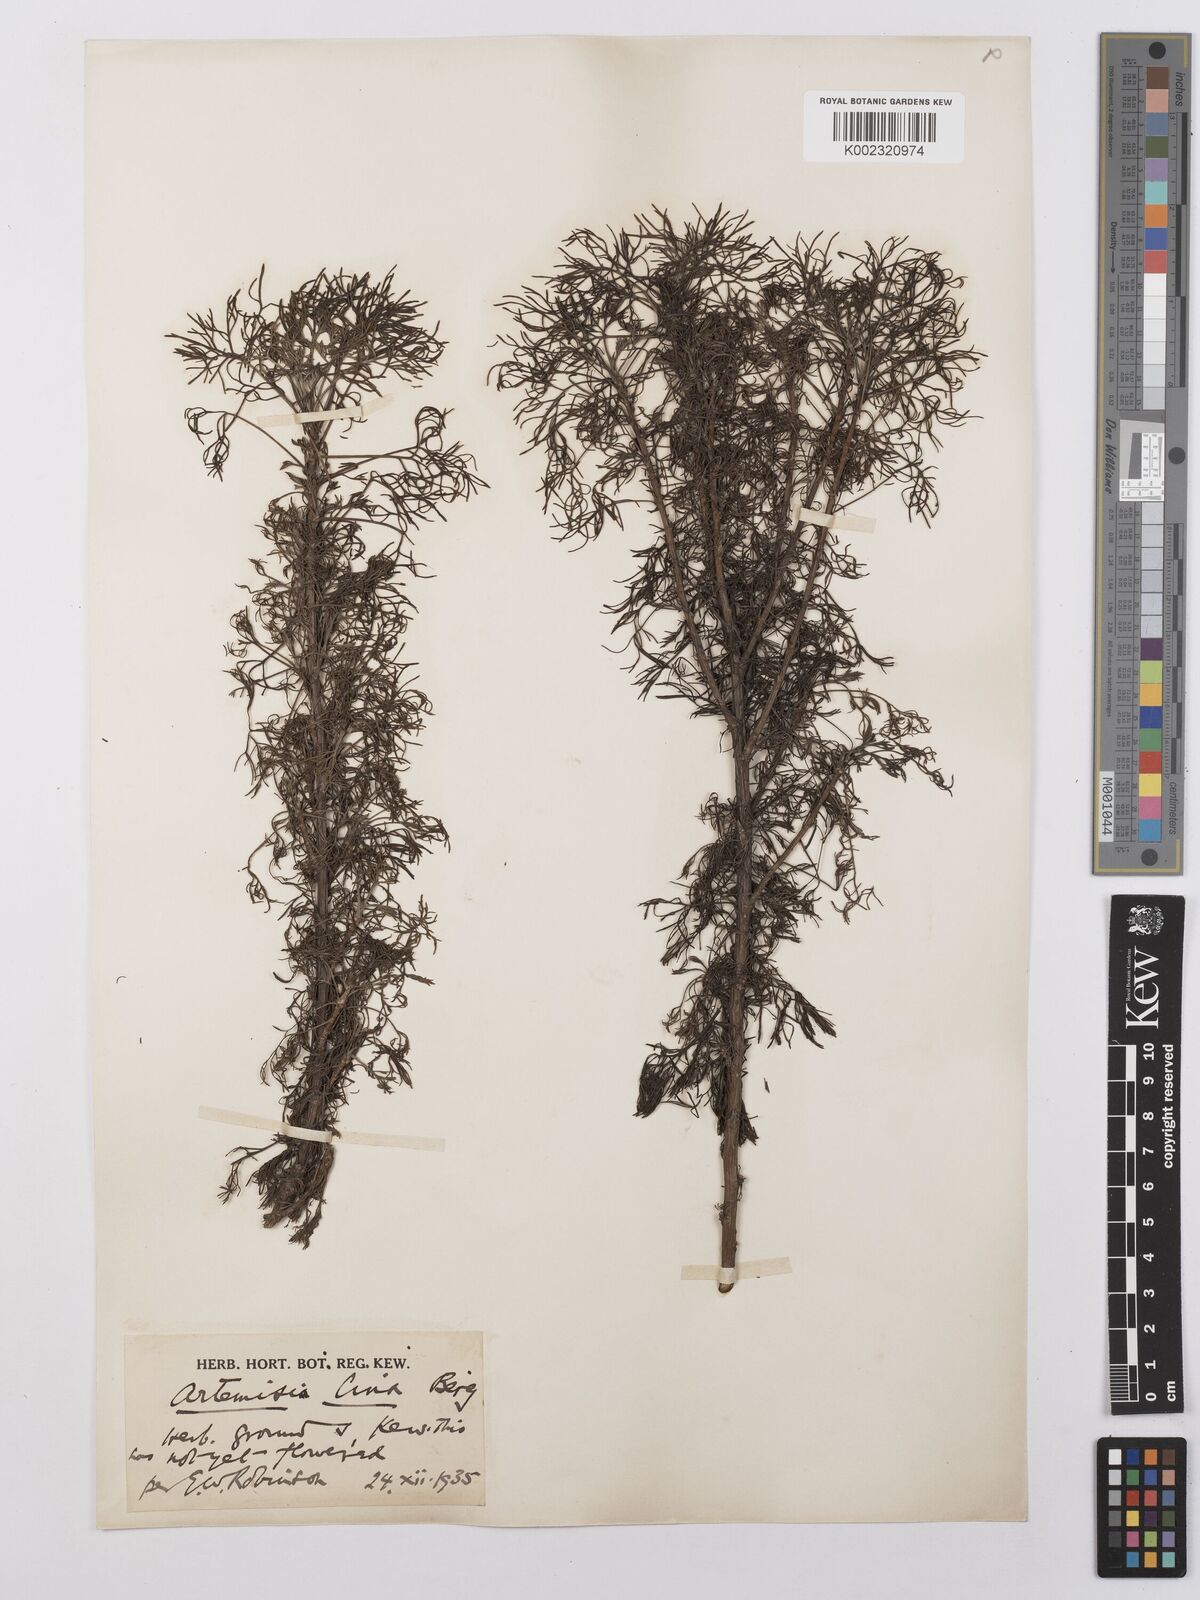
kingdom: Plantae
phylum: Tracheophyta
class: Magnoliopsida
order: Asterales
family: Asteraceae
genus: Artemisia
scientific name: Artemisia
